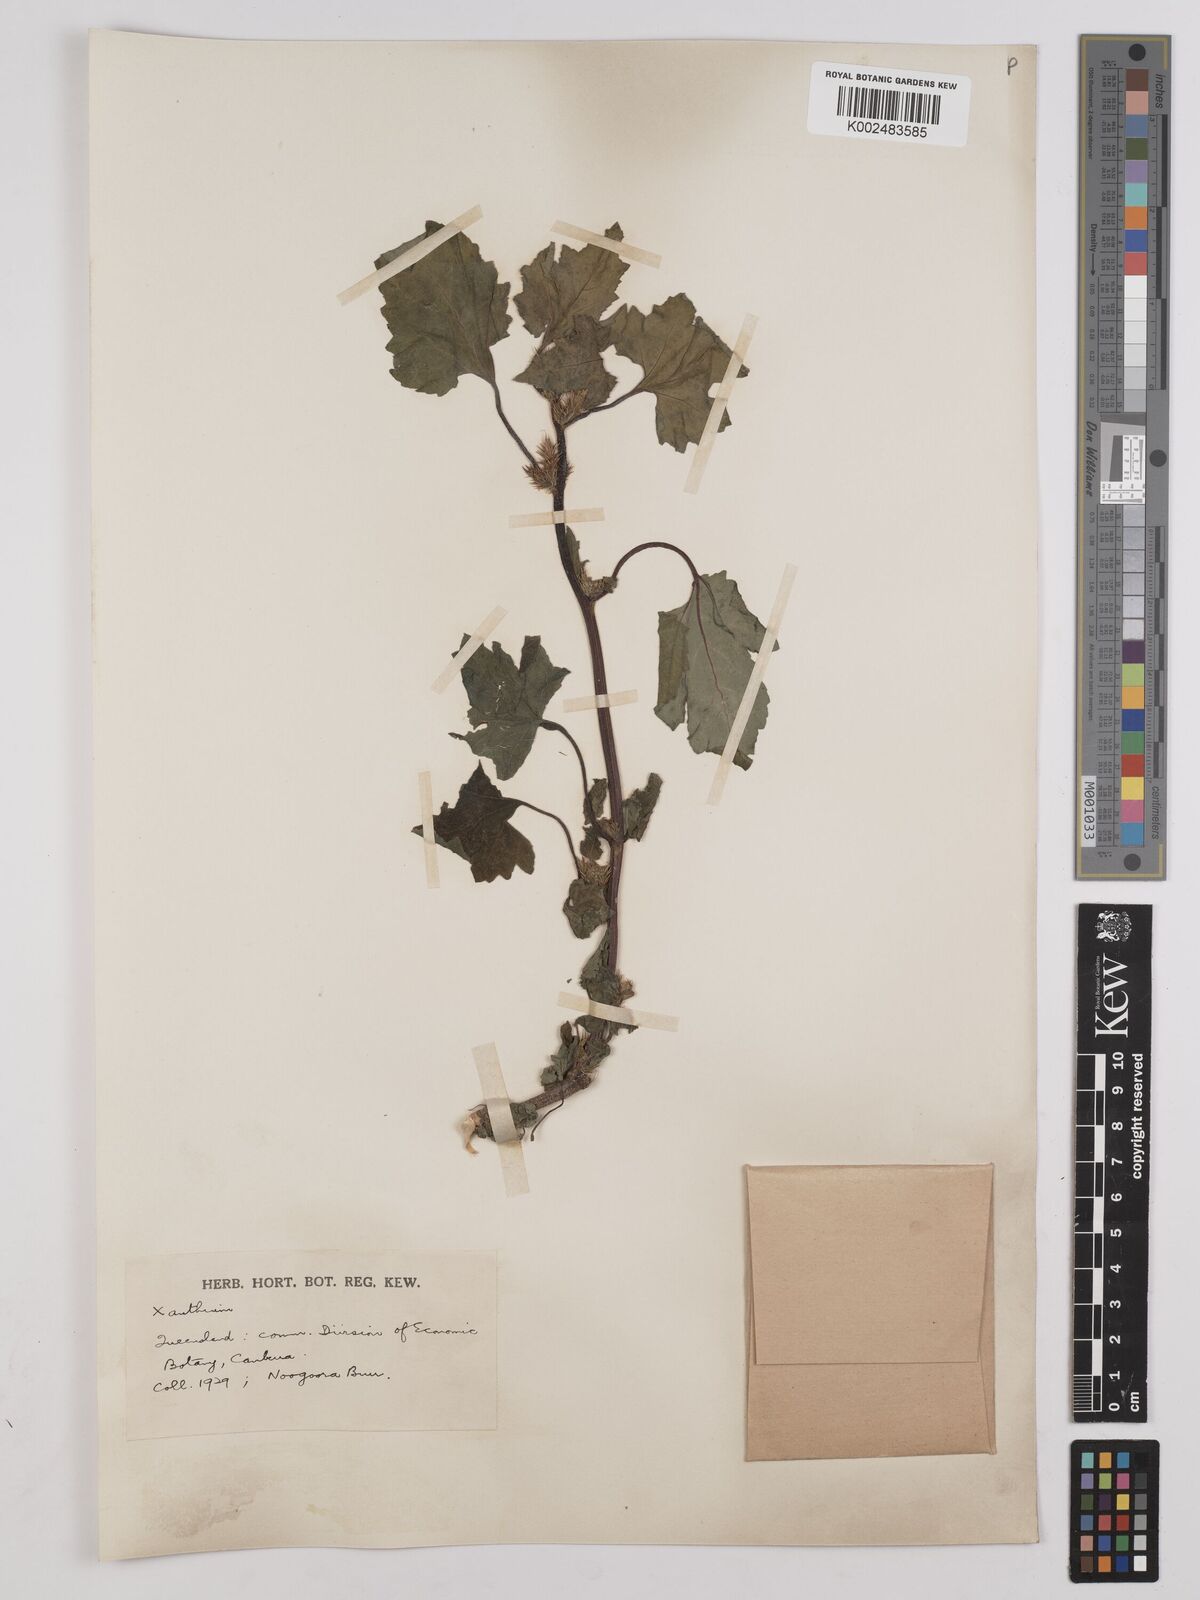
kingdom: Plantae
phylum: Tracheophyta
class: Magnoliopsida
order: Asterales
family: Asteraceae
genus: Xanthium
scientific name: Xanthium occidentale
